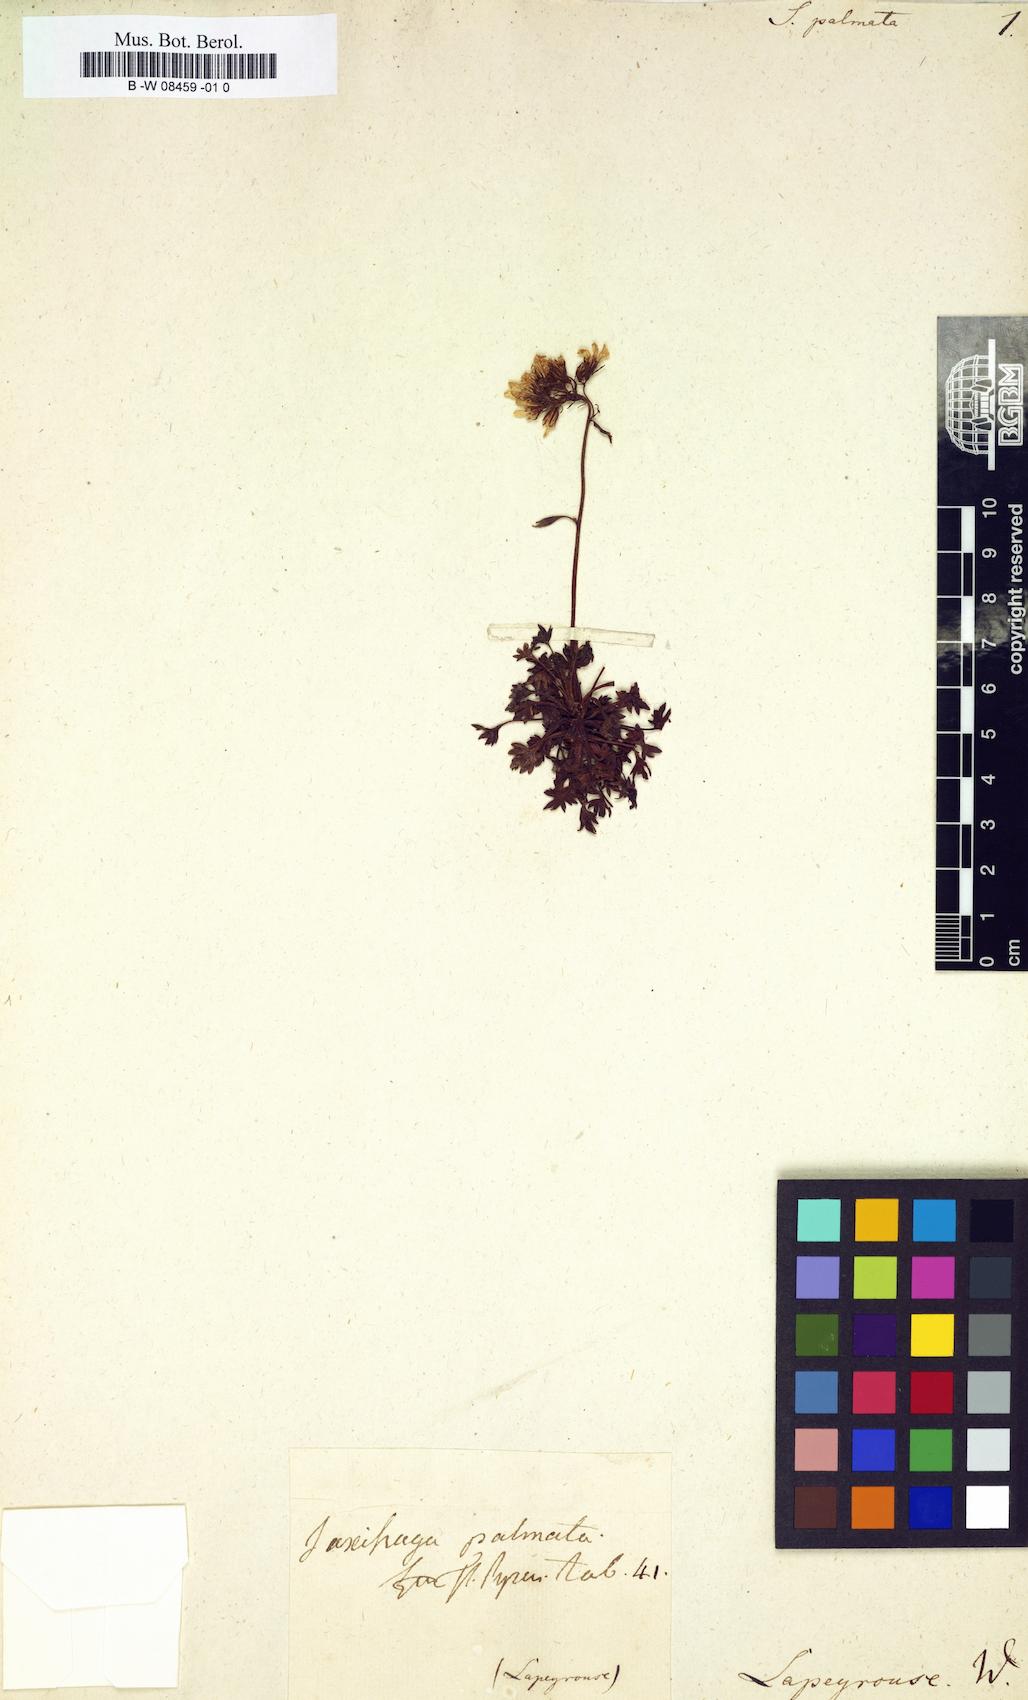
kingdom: Plantae
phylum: Tracheophyta
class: Magnoliopsida
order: Saxifragales
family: Saxifragaceae
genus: Saxifraga
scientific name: Saxifraga
